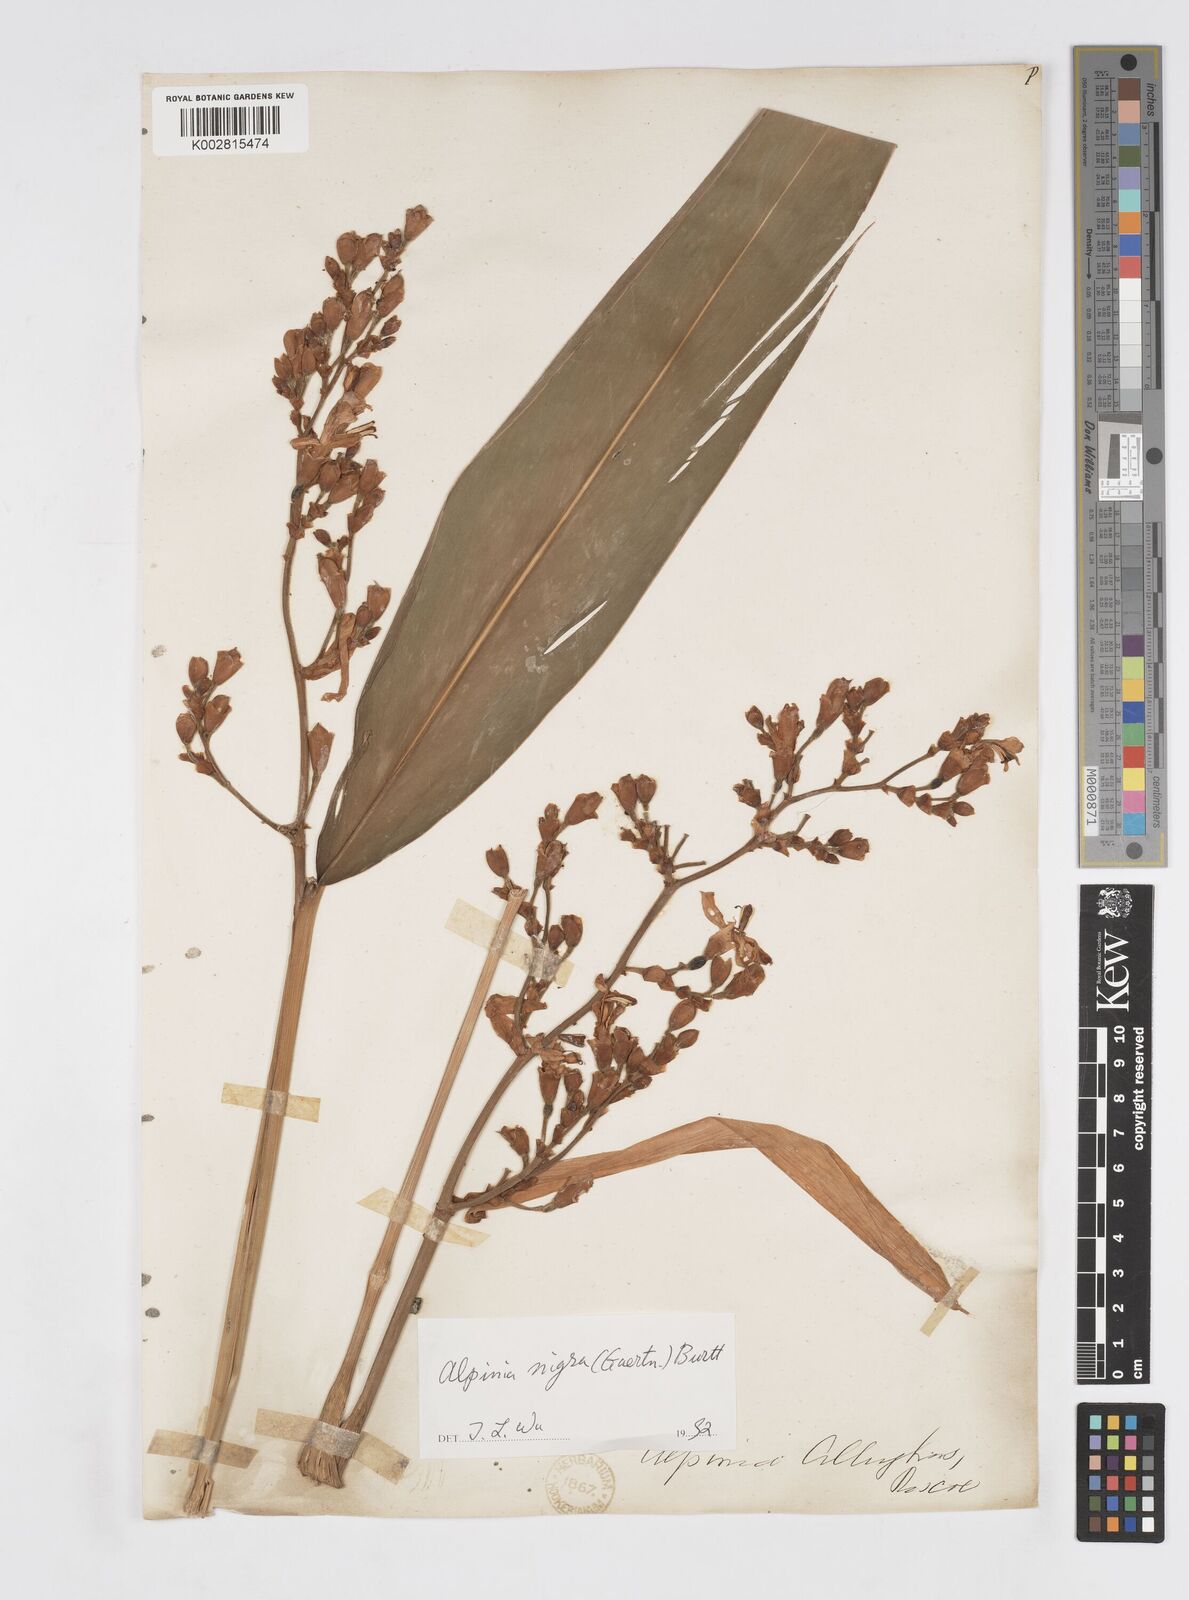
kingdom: Plantae
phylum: Tracheophyta
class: Liliopsida
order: Zingiberales
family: Zingiberaceae
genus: Alpinia
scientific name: Alpinia nigra
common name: Black fruited galanga
